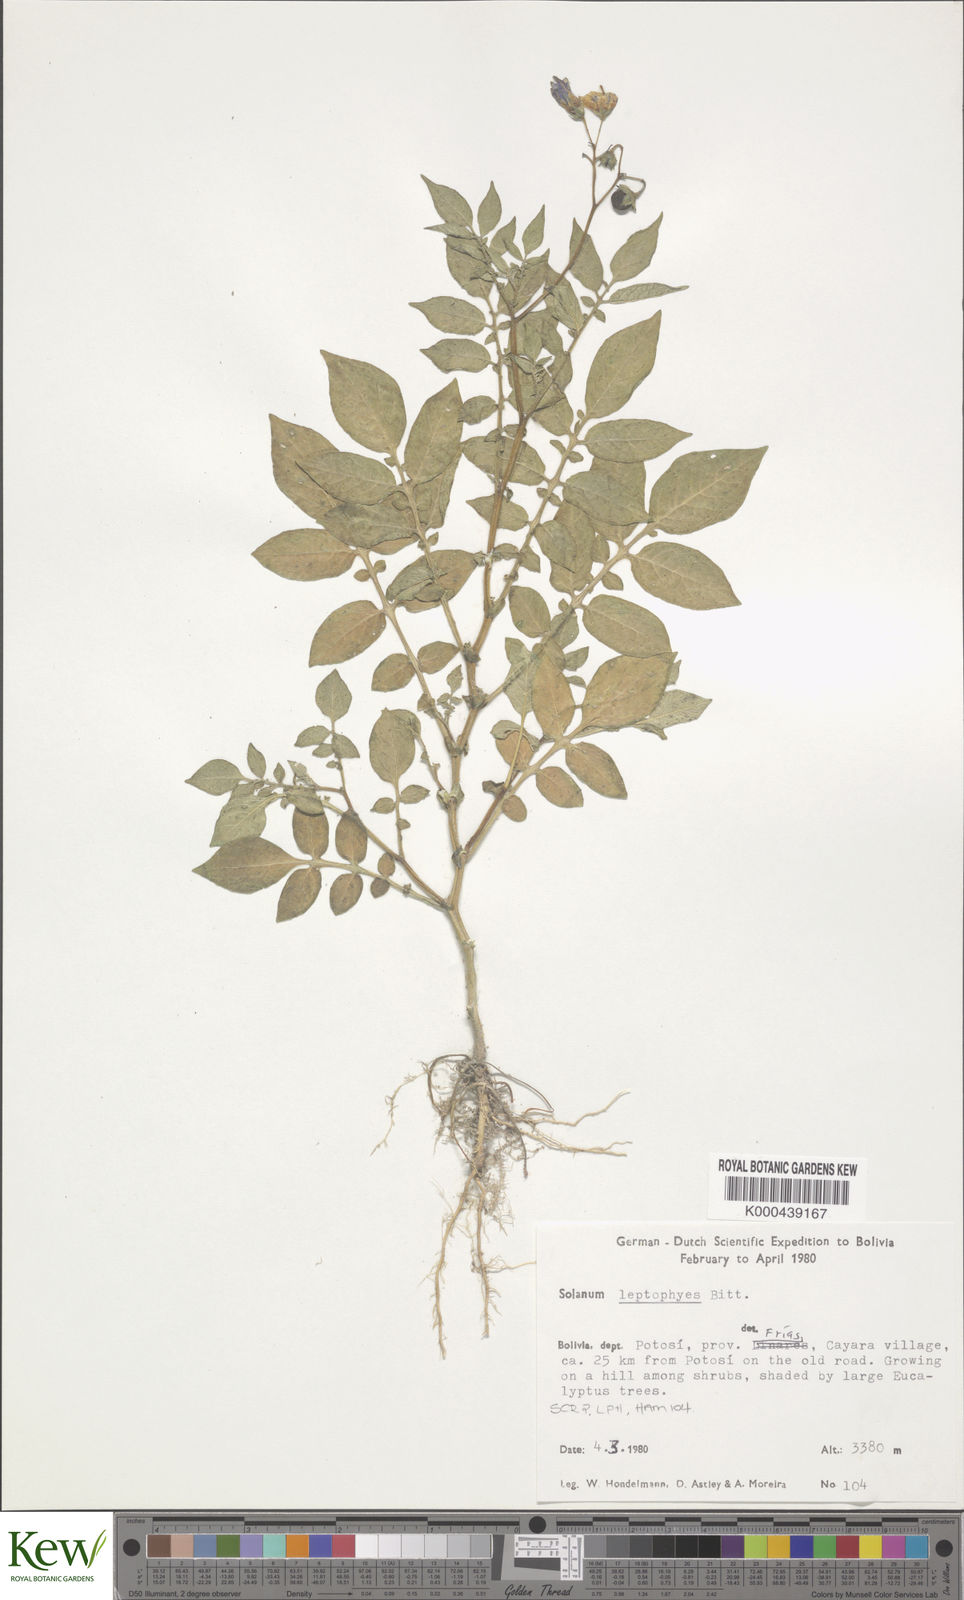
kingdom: Plantae
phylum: Tracheophyta
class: Magnoliopsida
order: Solanales
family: Solanaceae
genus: Solanum
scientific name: Solanum brevicaule
